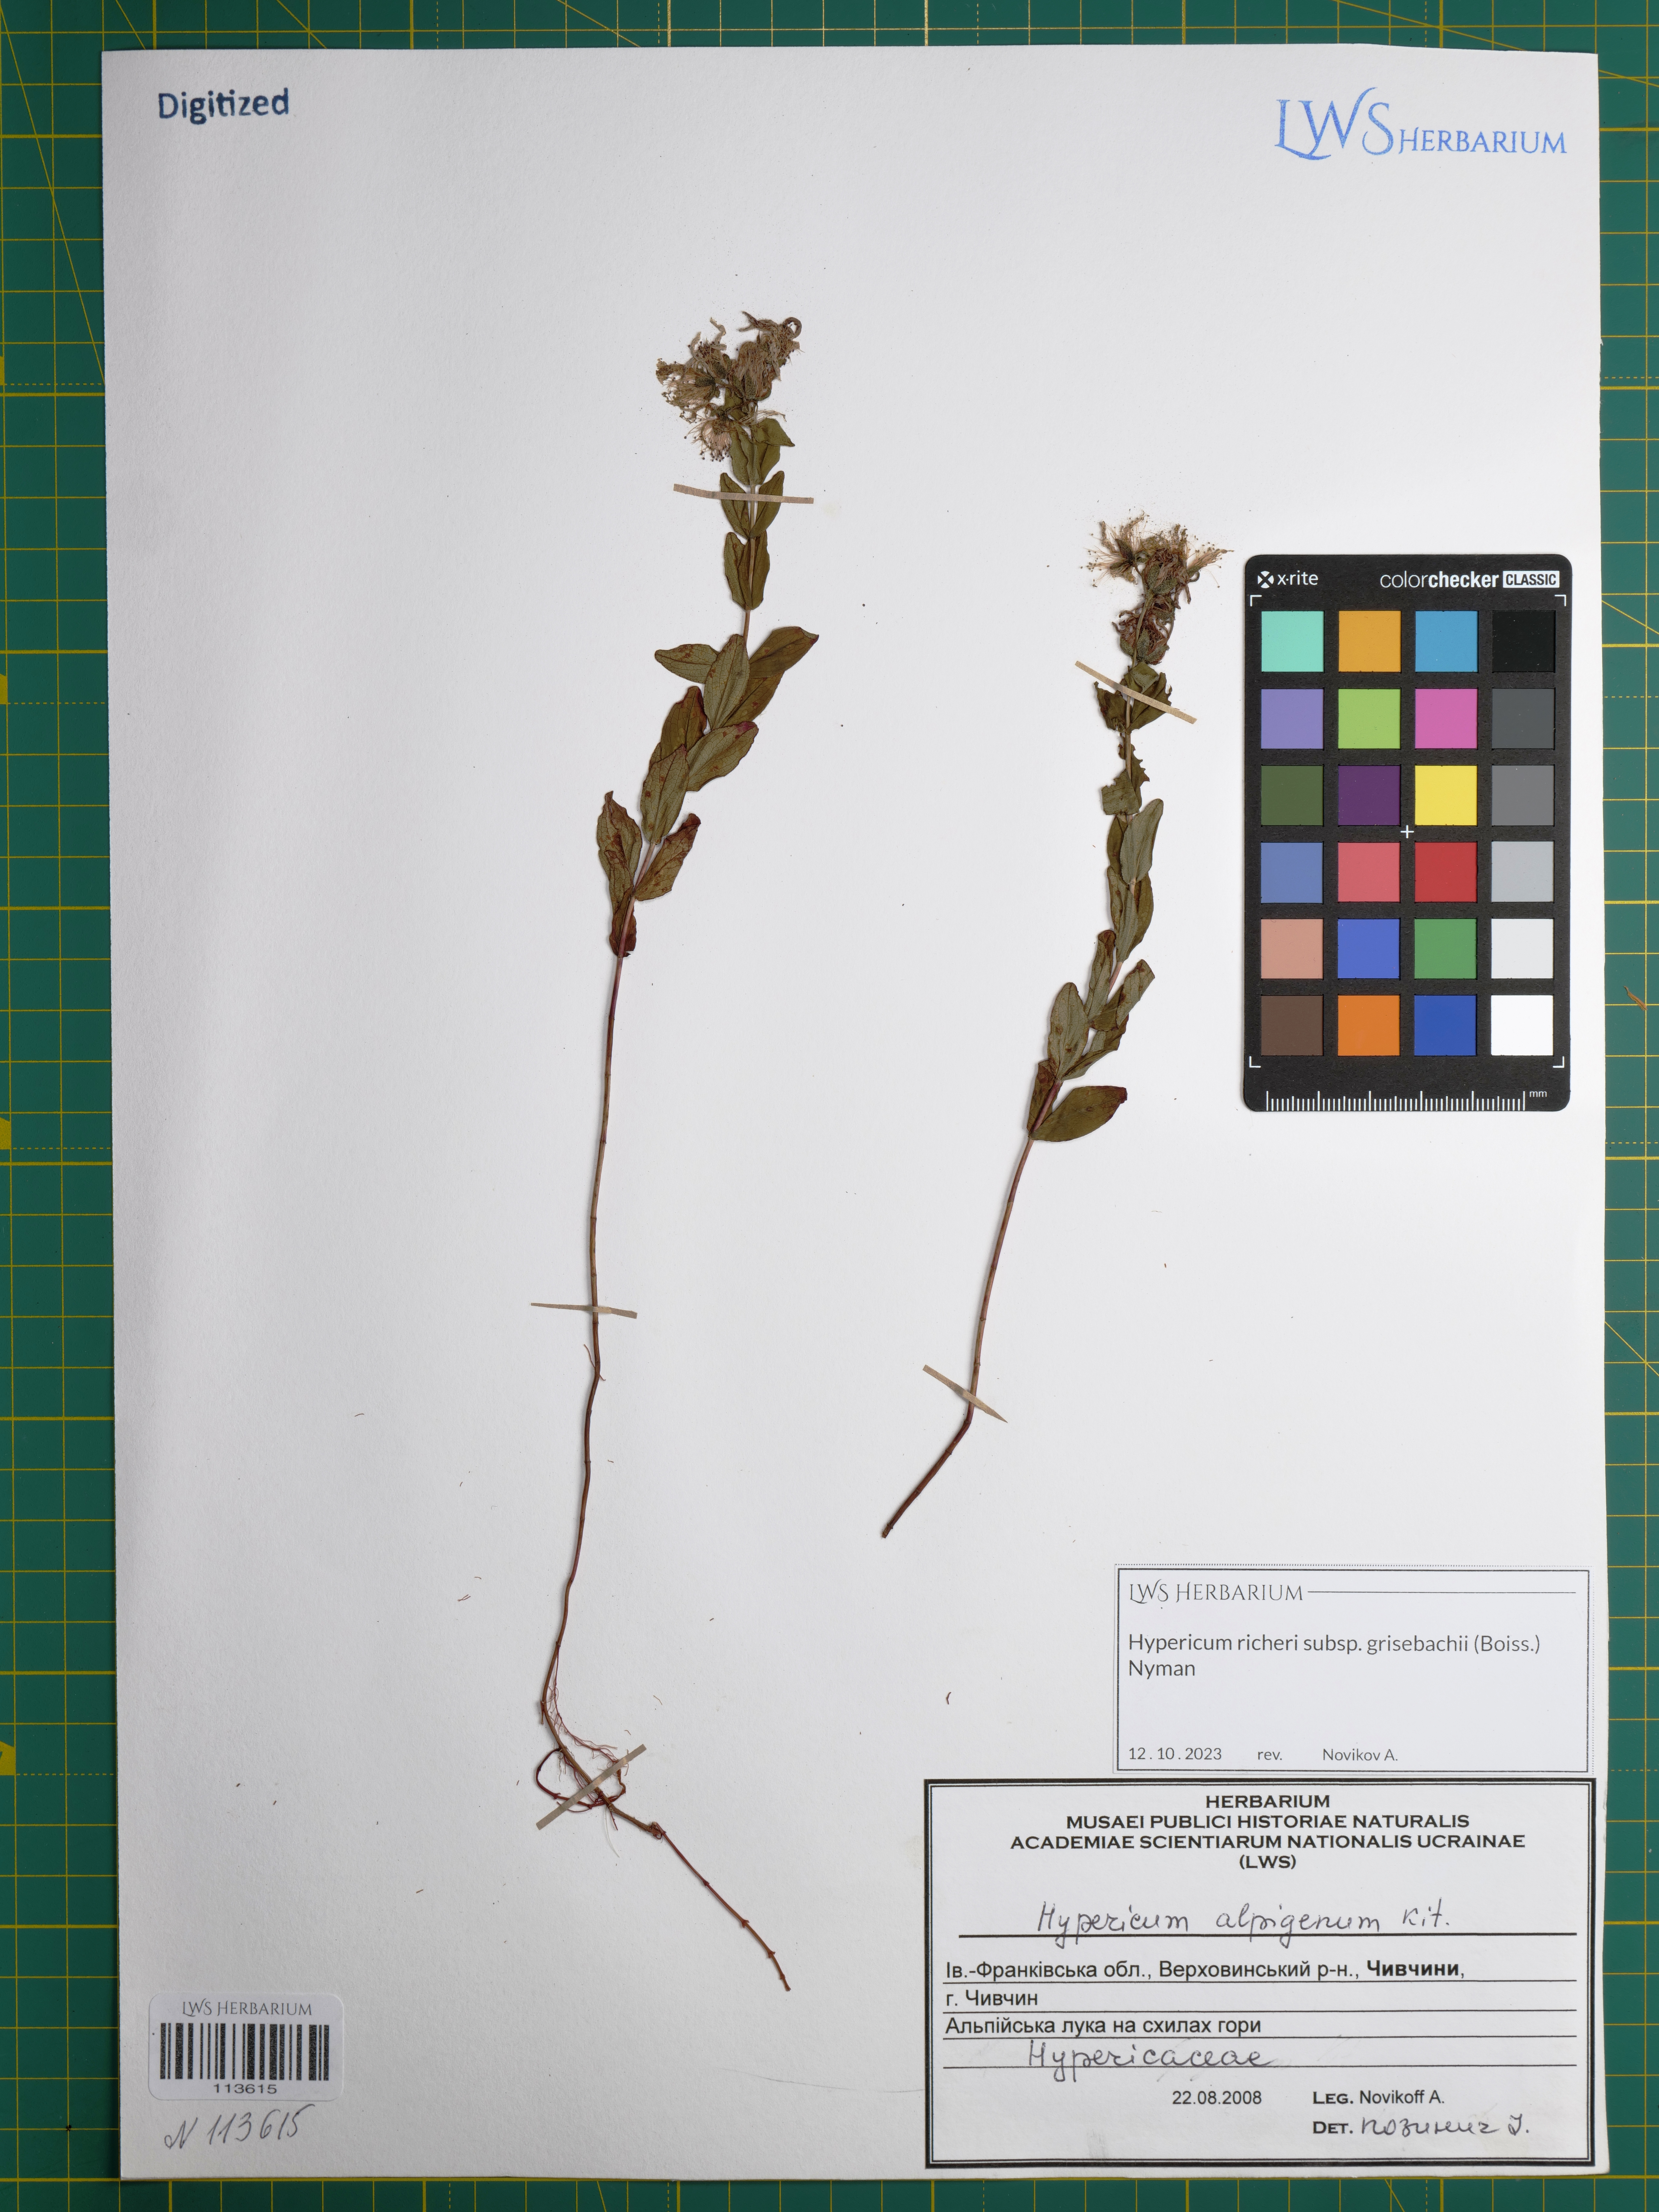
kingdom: Plantae
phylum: Tracheophyta
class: Magnoliopsida
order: Malpighiales
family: Hypericaceae
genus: Hypericum
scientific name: Hypericum richeri
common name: Alpine st john's-wort
